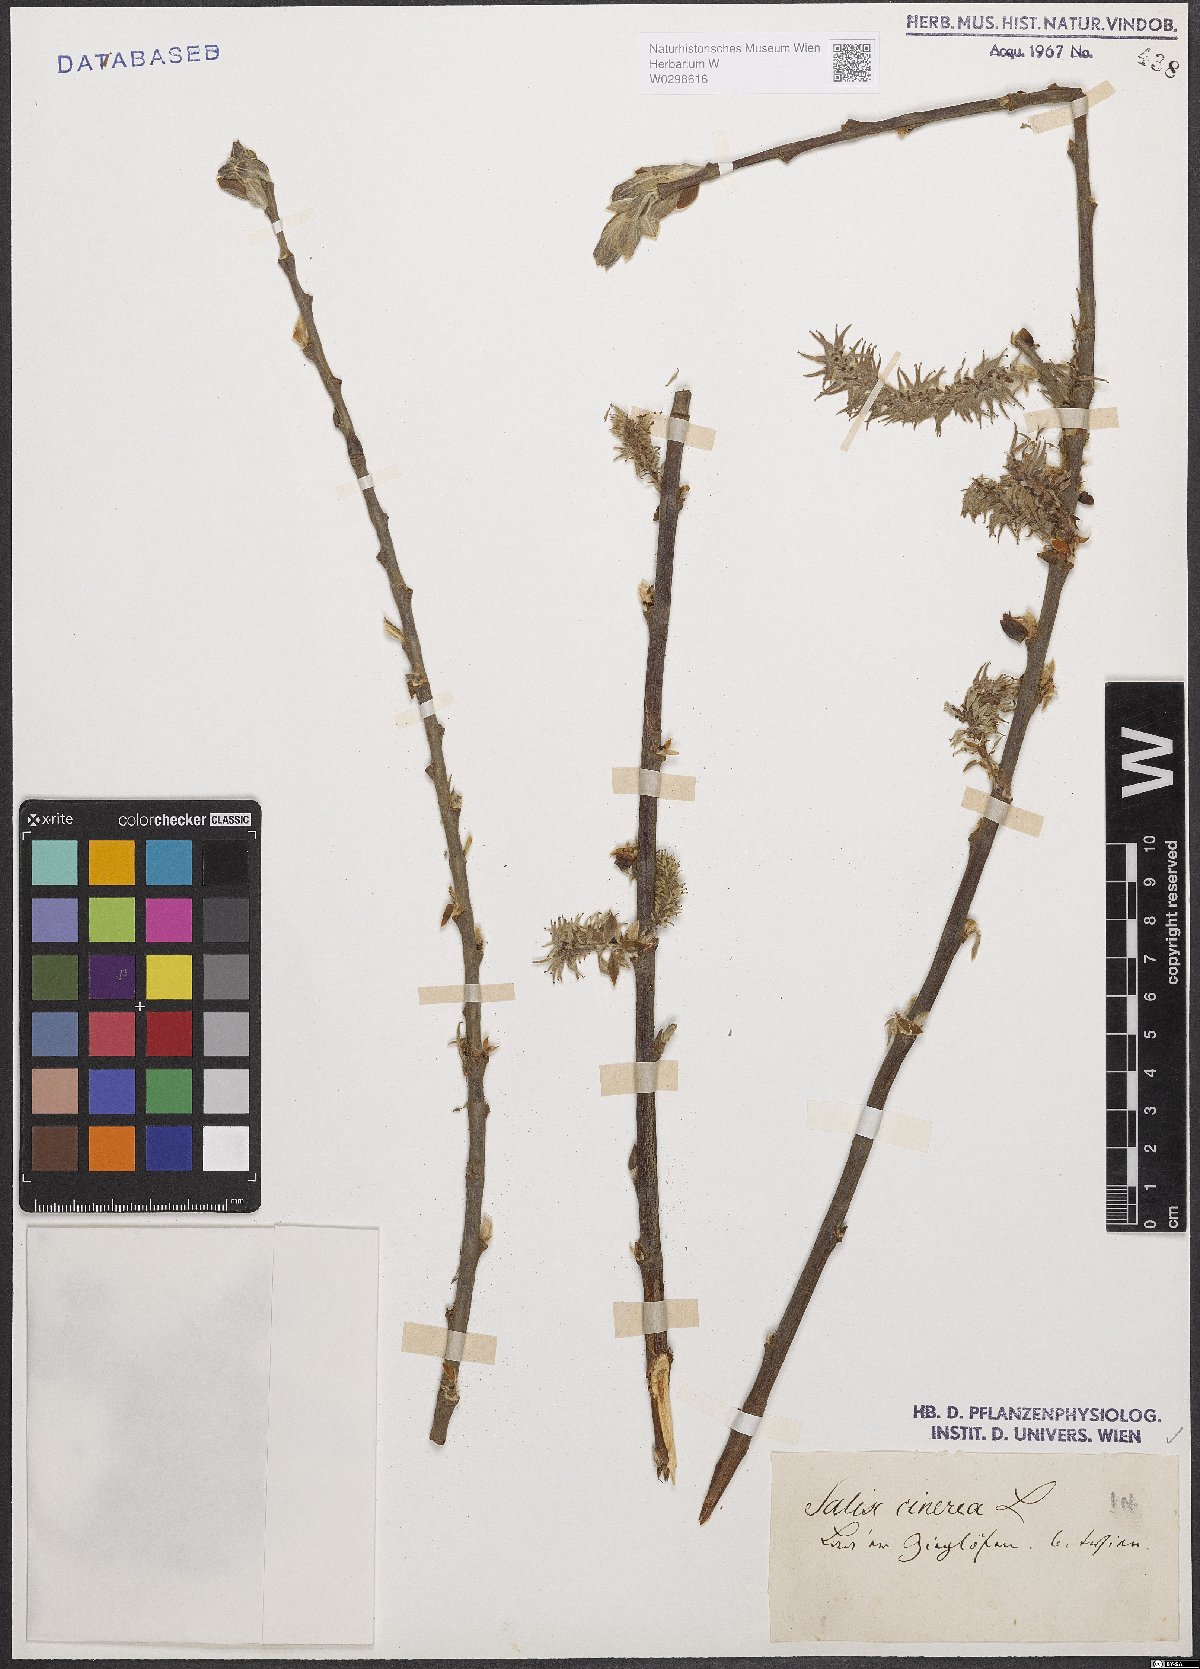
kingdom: Plantae
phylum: Tracheophyta
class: Magnoliopsida
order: Malpighiales
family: Salicaceae
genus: Salix
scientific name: Salix cinerea
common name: Common sallow
